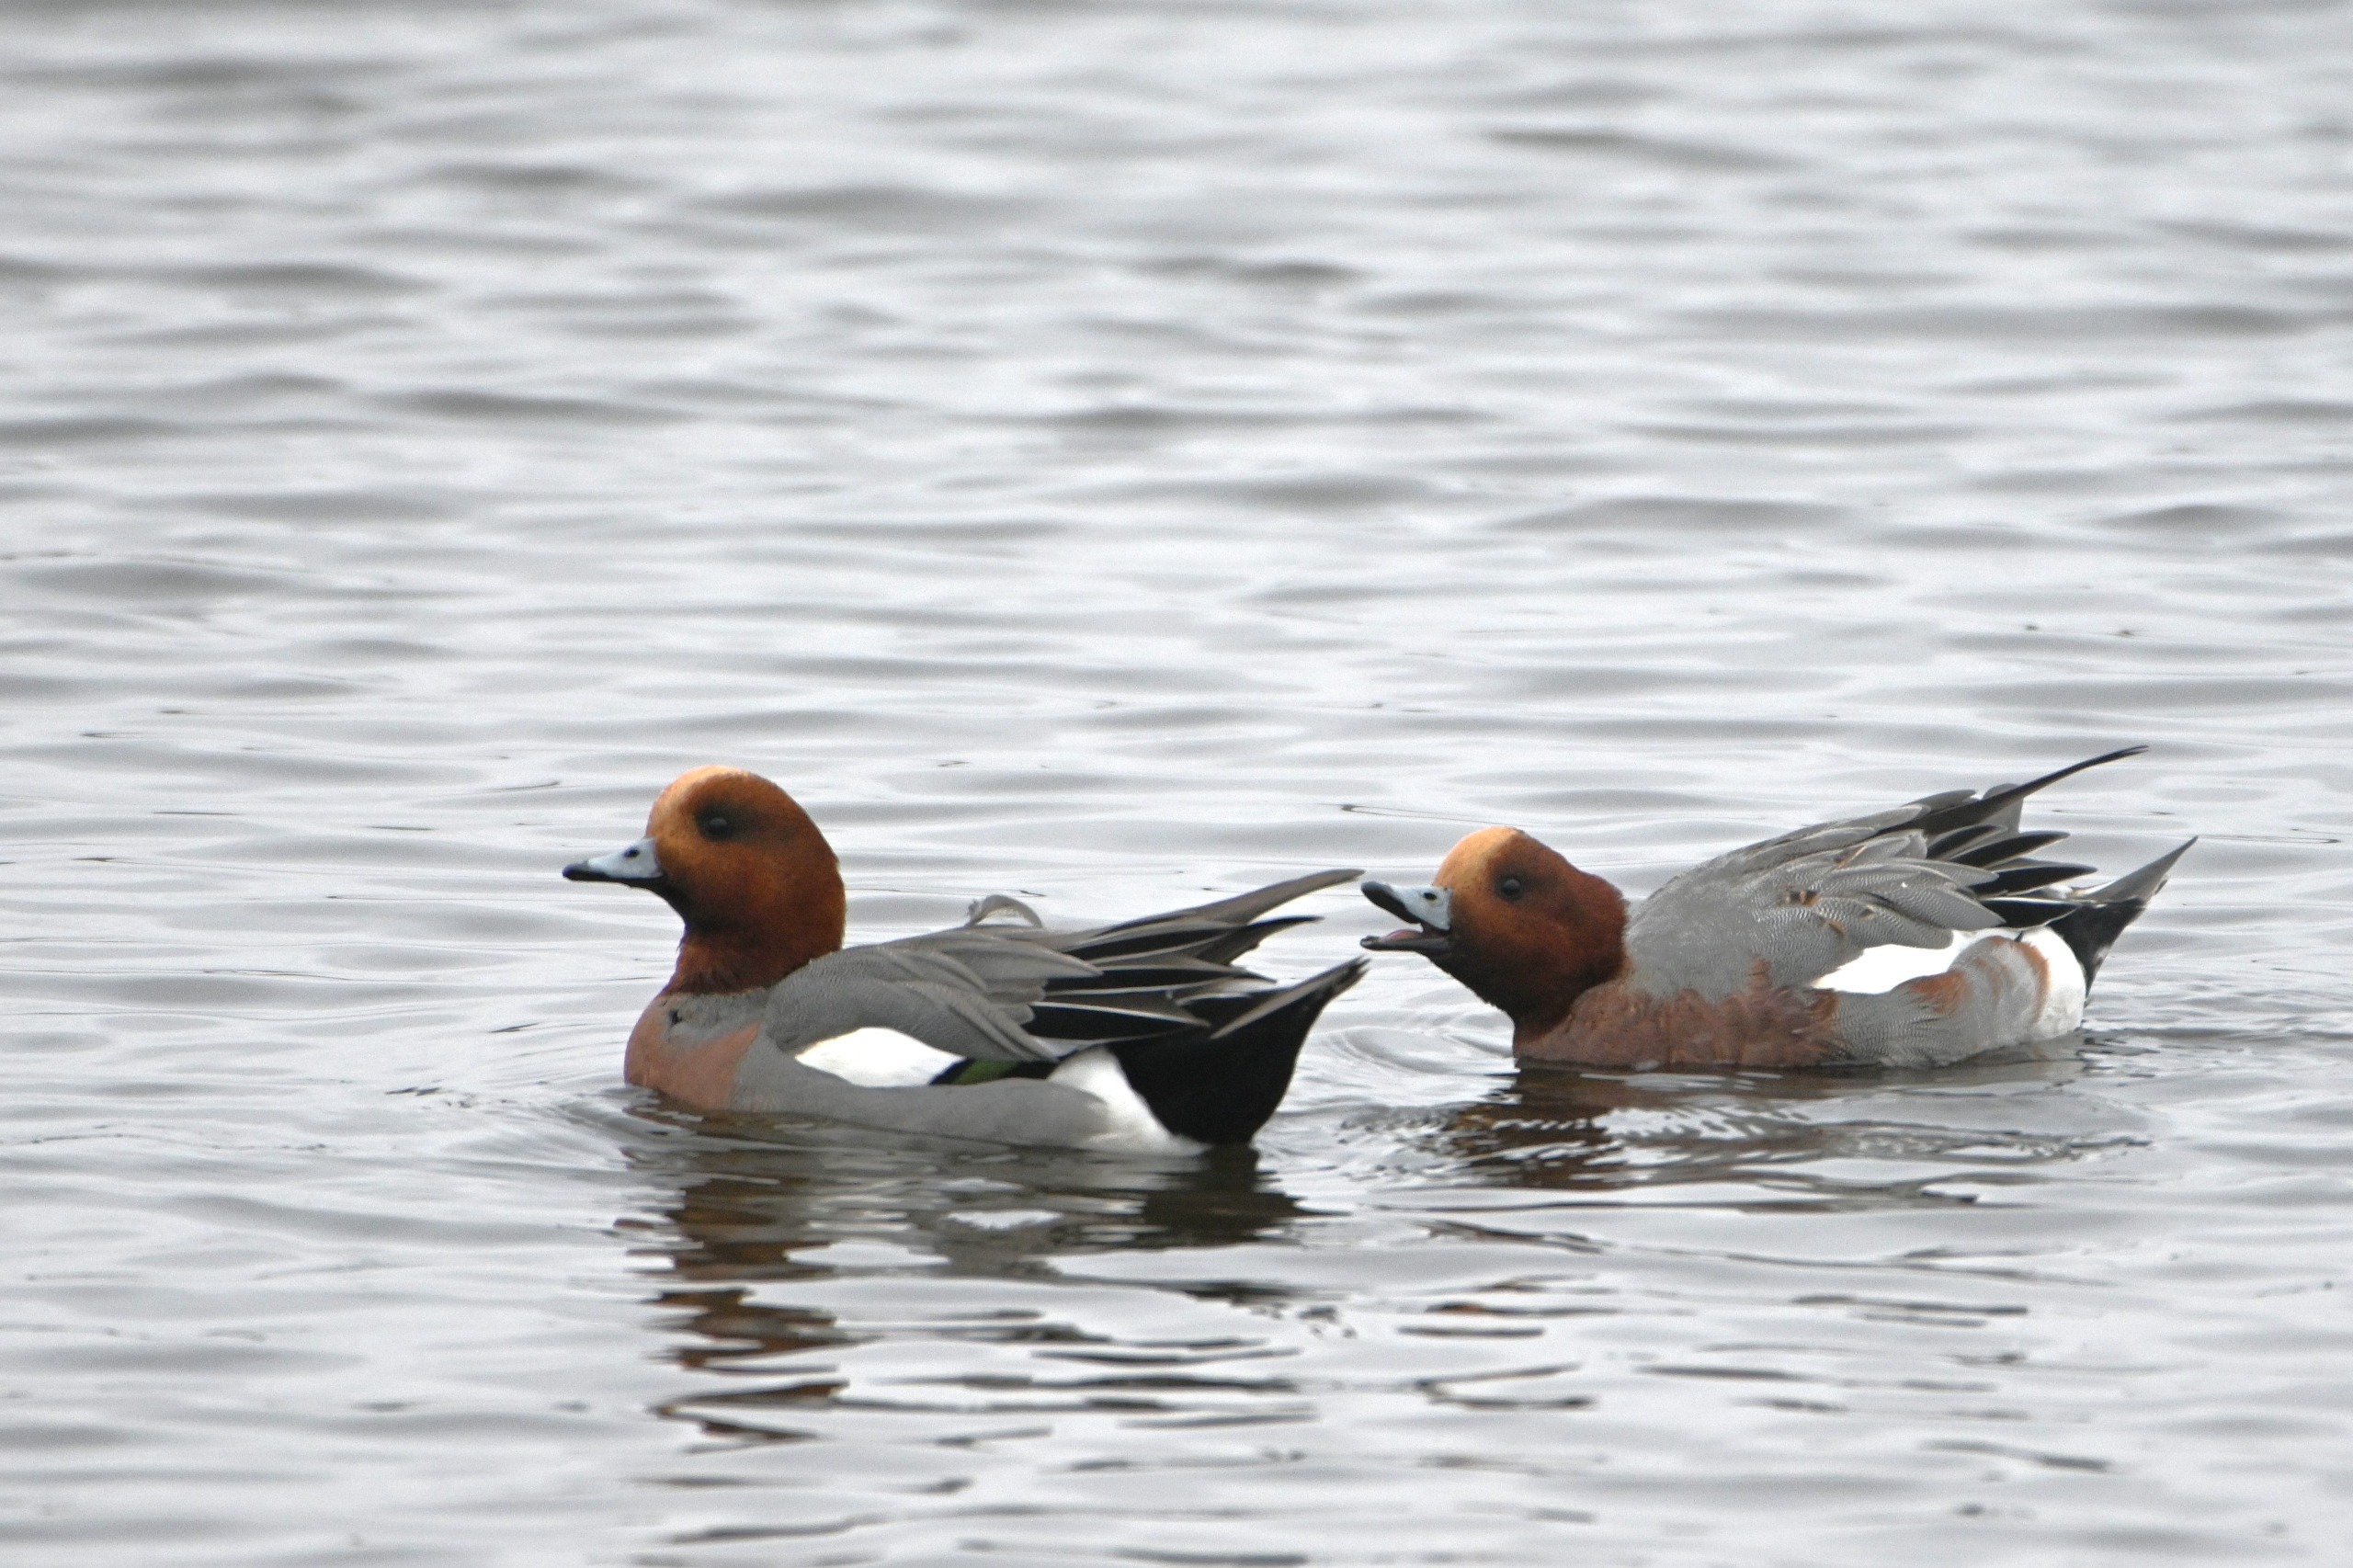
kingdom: Animalia
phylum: Chordata
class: Aves
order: Anseriformes
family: Anatidae
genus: Mareca
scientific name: Mareca penelope
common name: Pibeand
